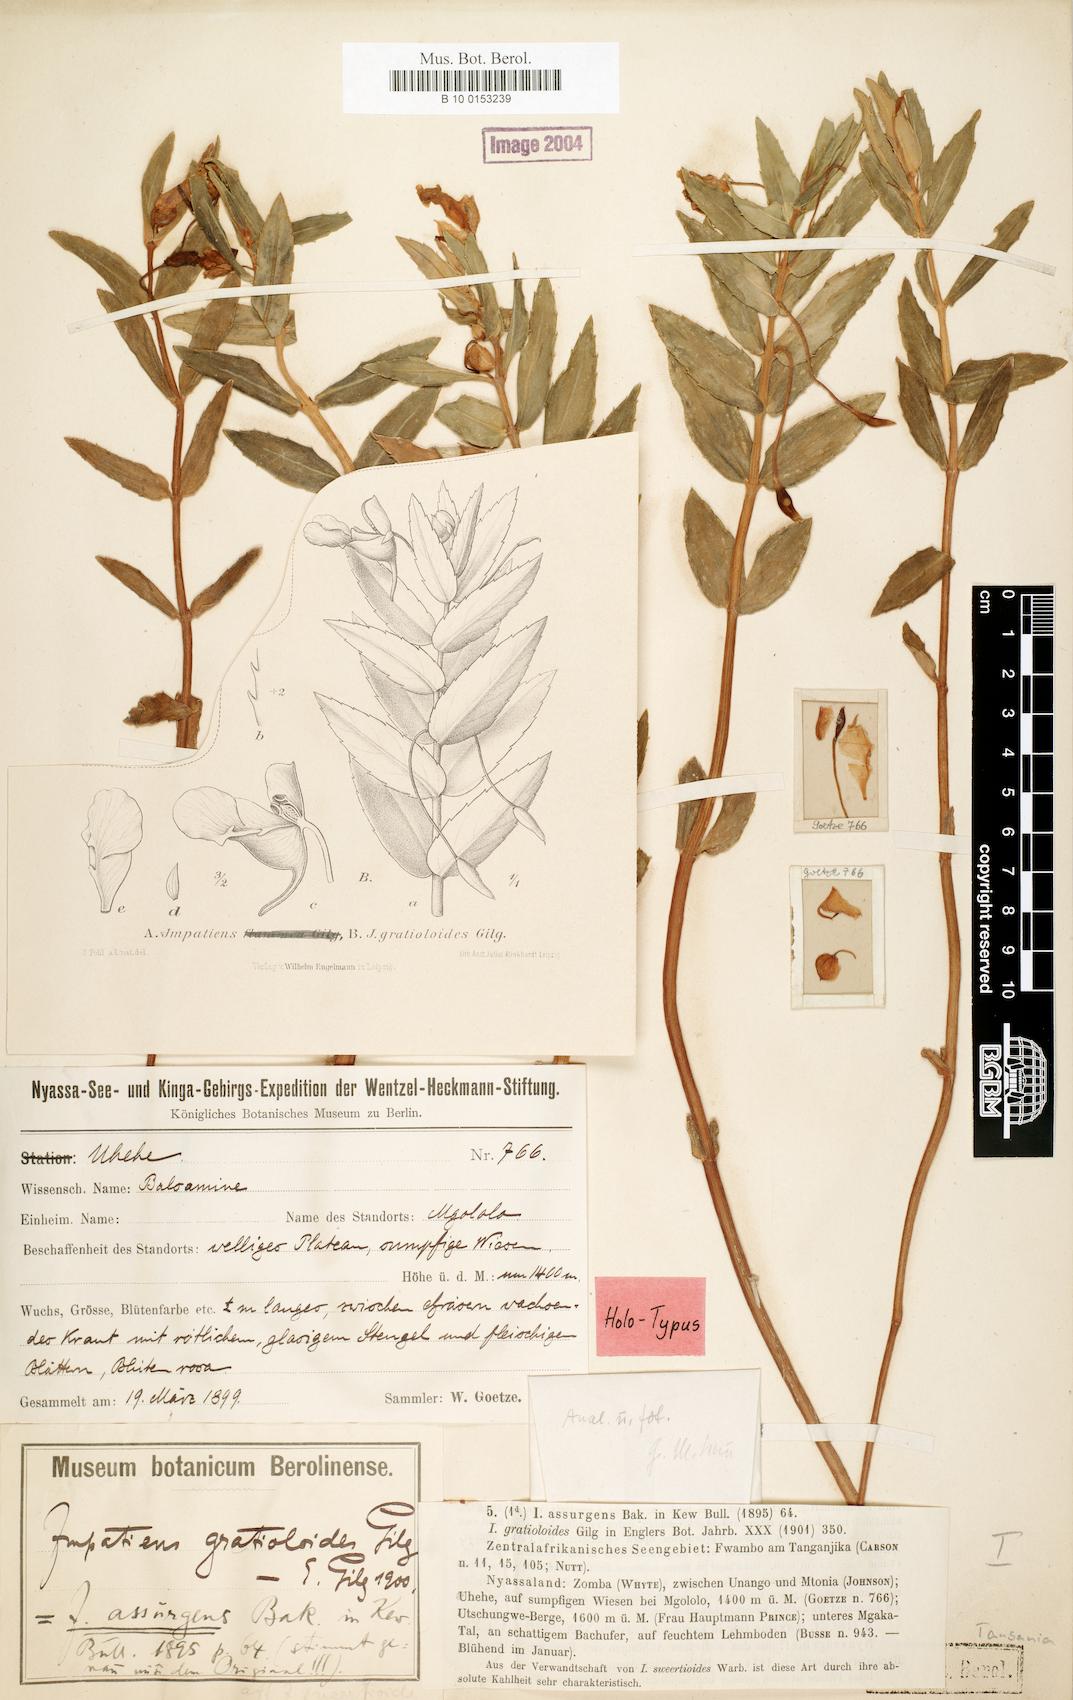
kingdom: Plantae
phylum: Tracheophyta
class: Magnoliopsida
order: Ericales
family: Balsaminaceae
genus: Impatiens
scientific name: Impatiens assurgens
